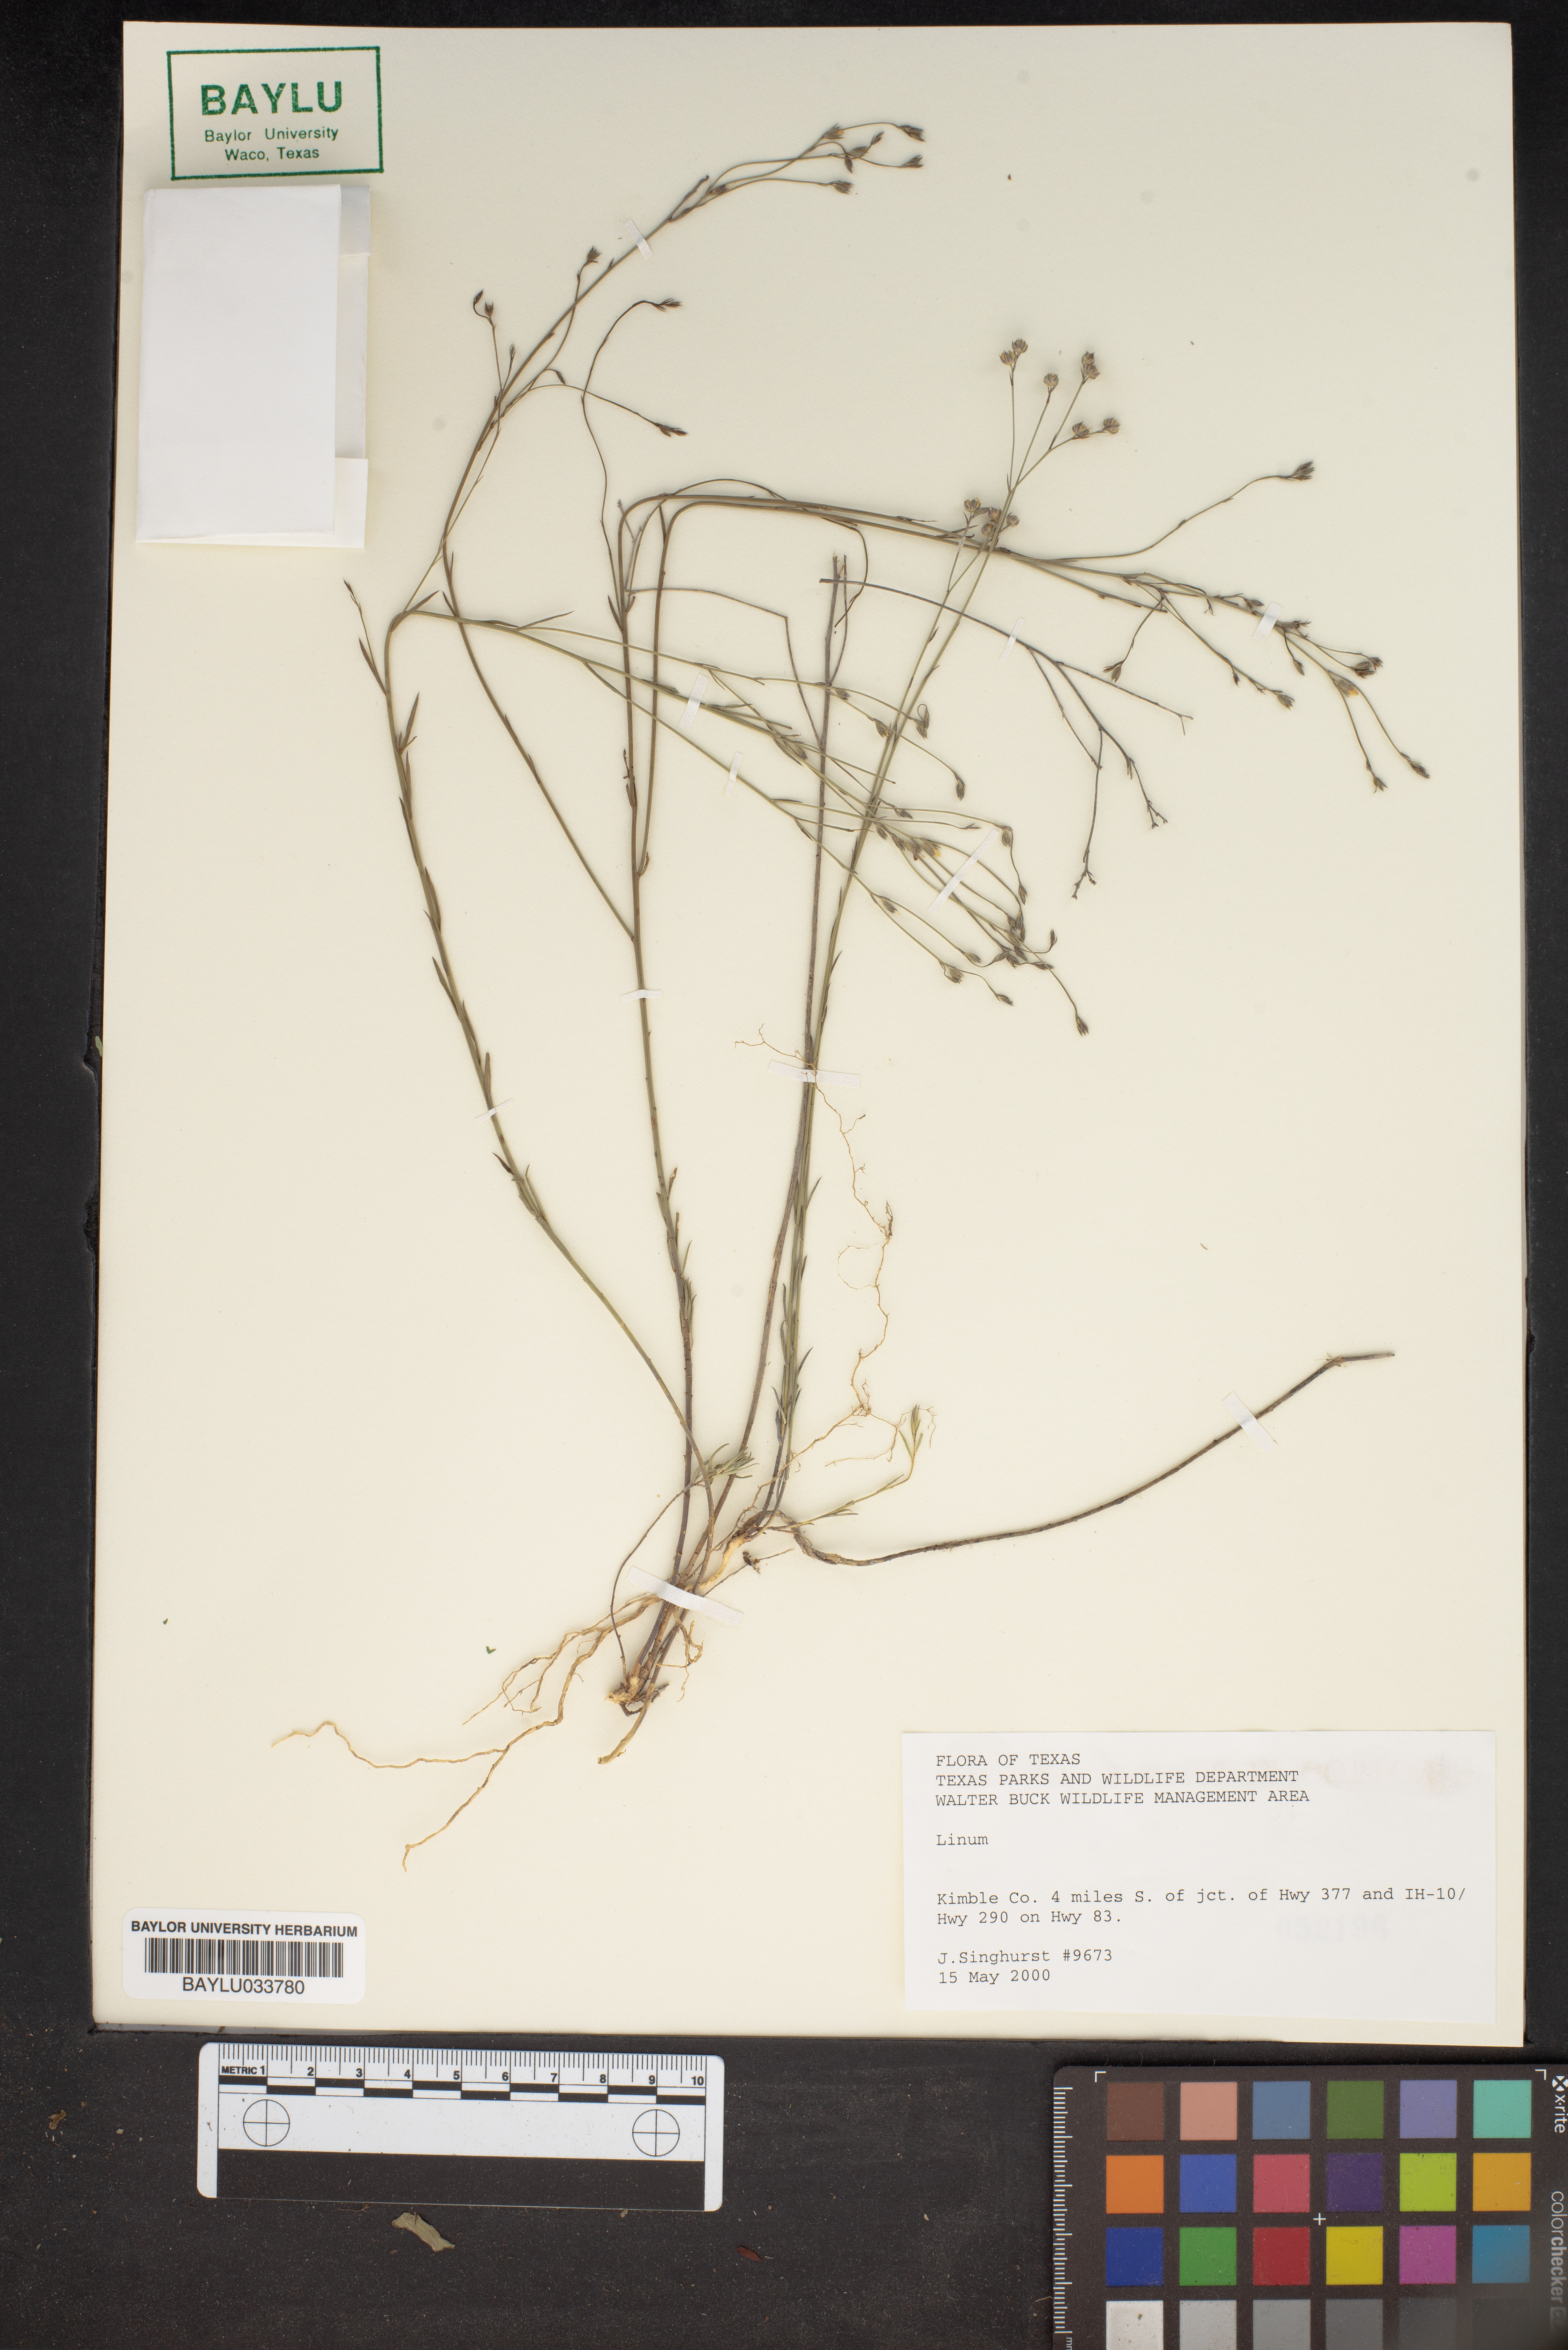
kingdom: Plantae
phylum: Tracheophyta
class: Magnoliopsida
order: Malpighiales
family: Linaceae
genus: Linum
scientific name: Linum
